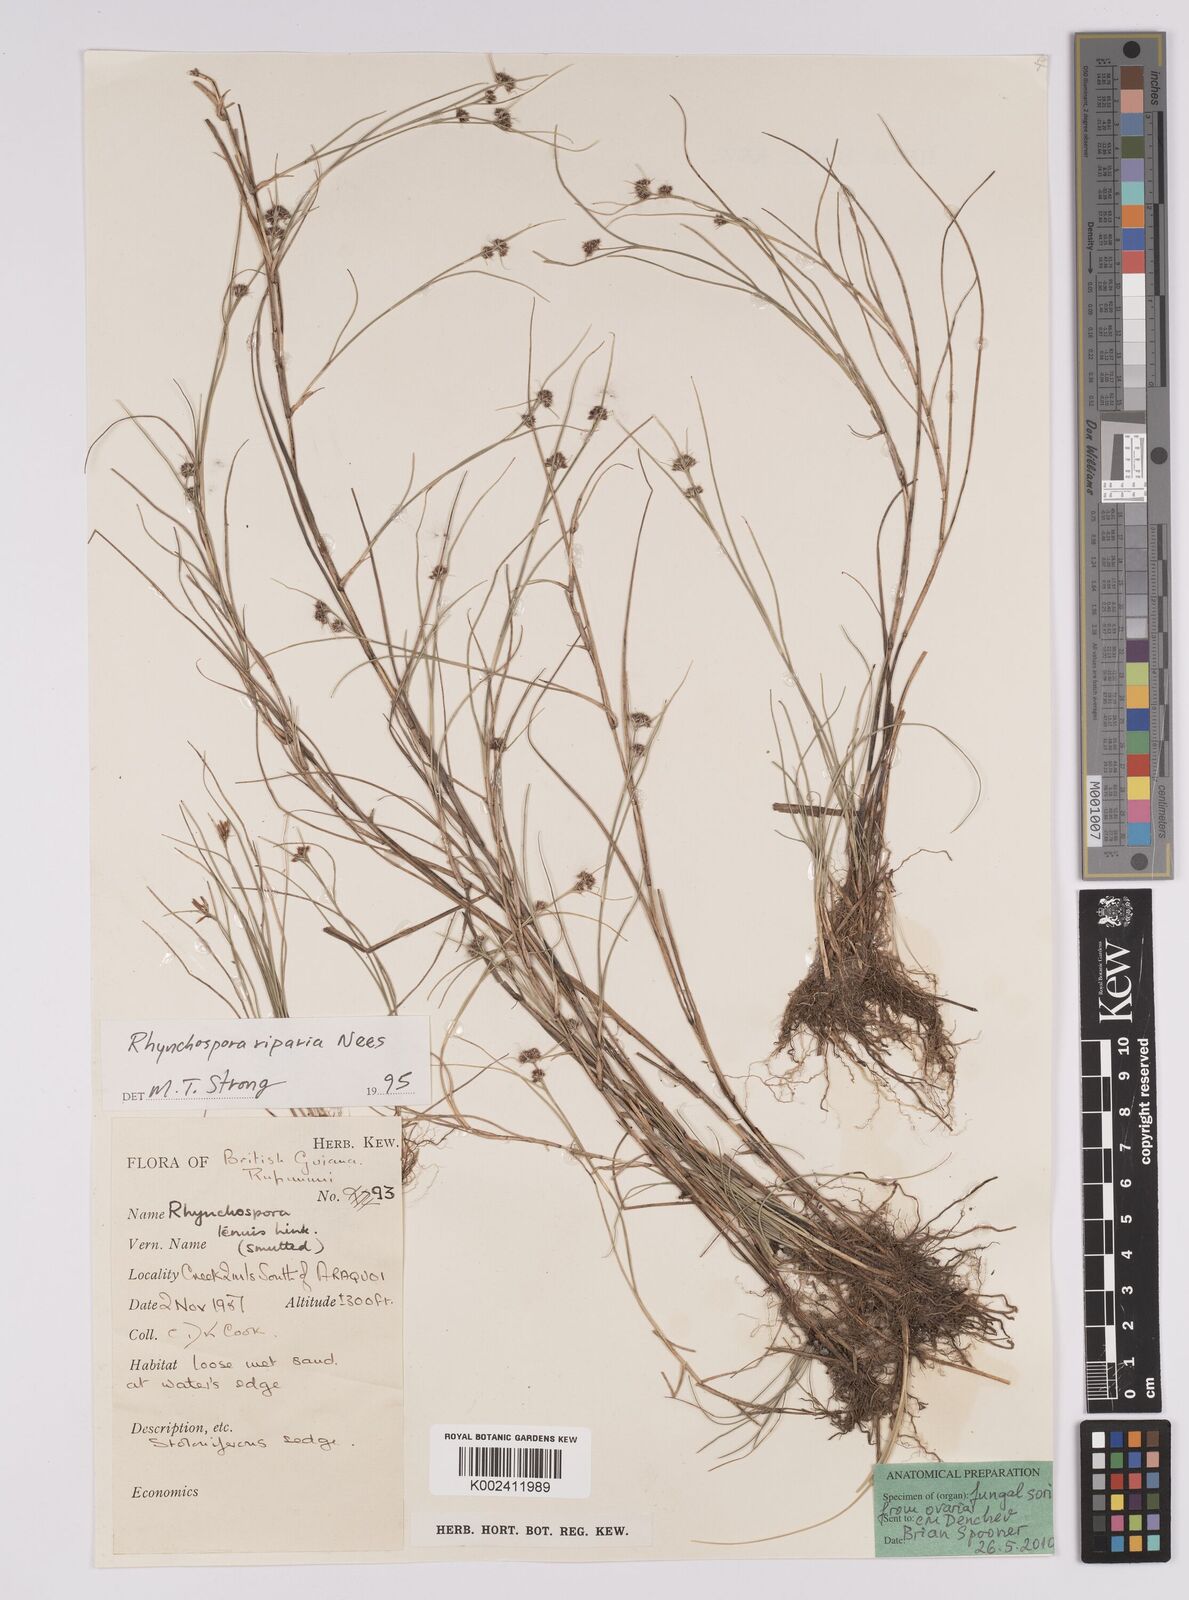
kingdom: Plantae
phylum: Tracheophyta
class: Liliopsida
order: Poales
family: Cyperaceae
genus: Rhynchospora
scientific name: Rhynchospora riparia
